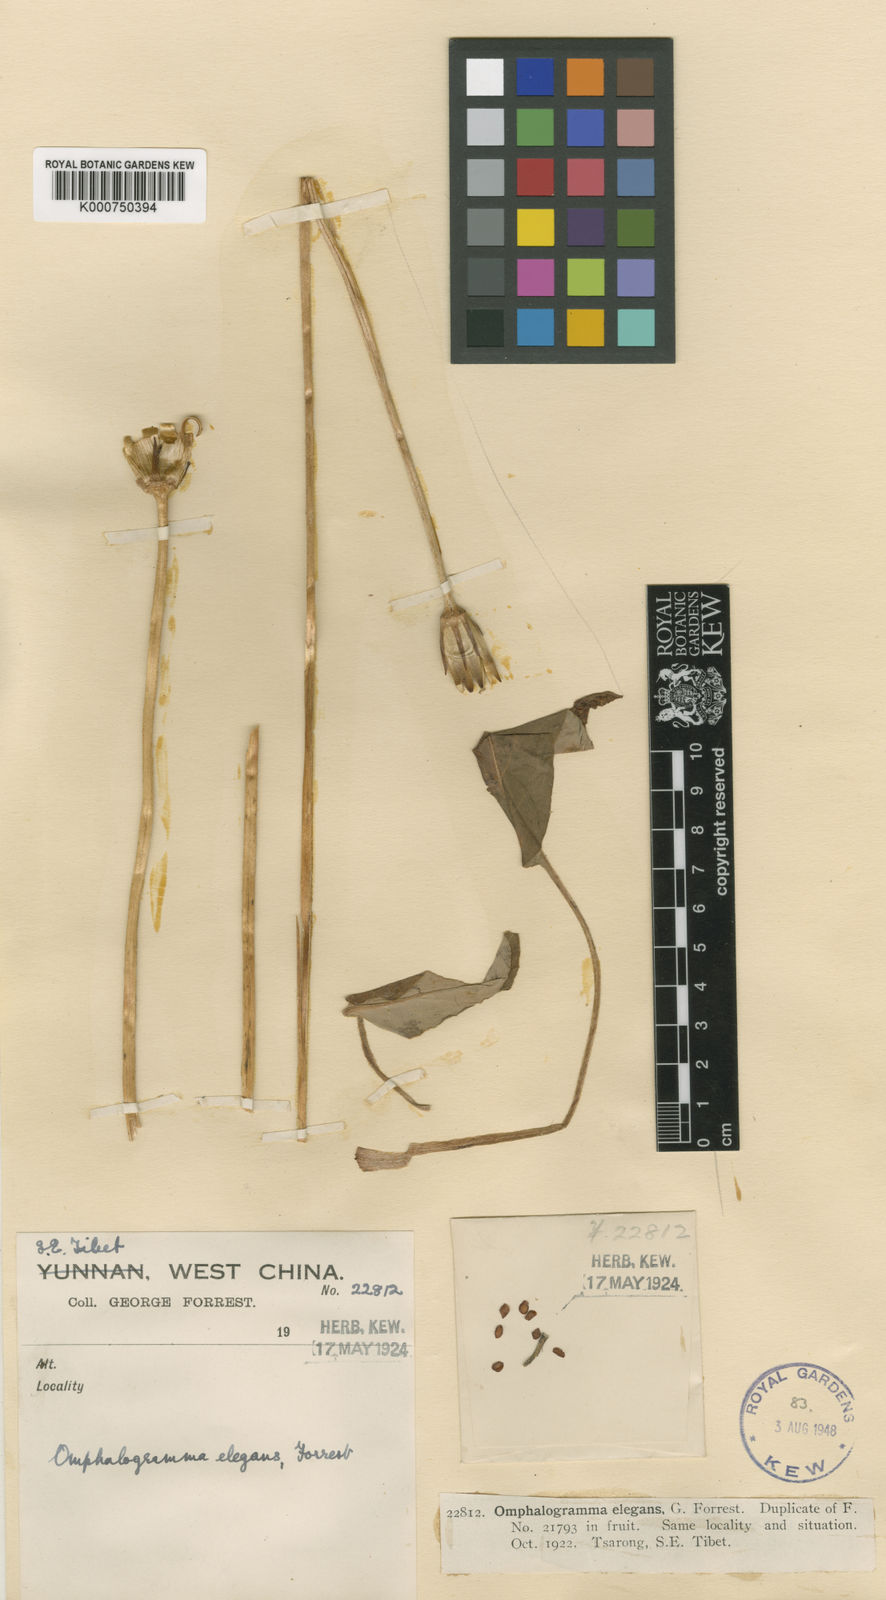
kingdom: Plantae
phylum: Tracheophyta
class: Magnoliopsida
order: Ericales
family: Primulaceae
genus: Omphalogramma
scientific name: Omphalogramma elegans
